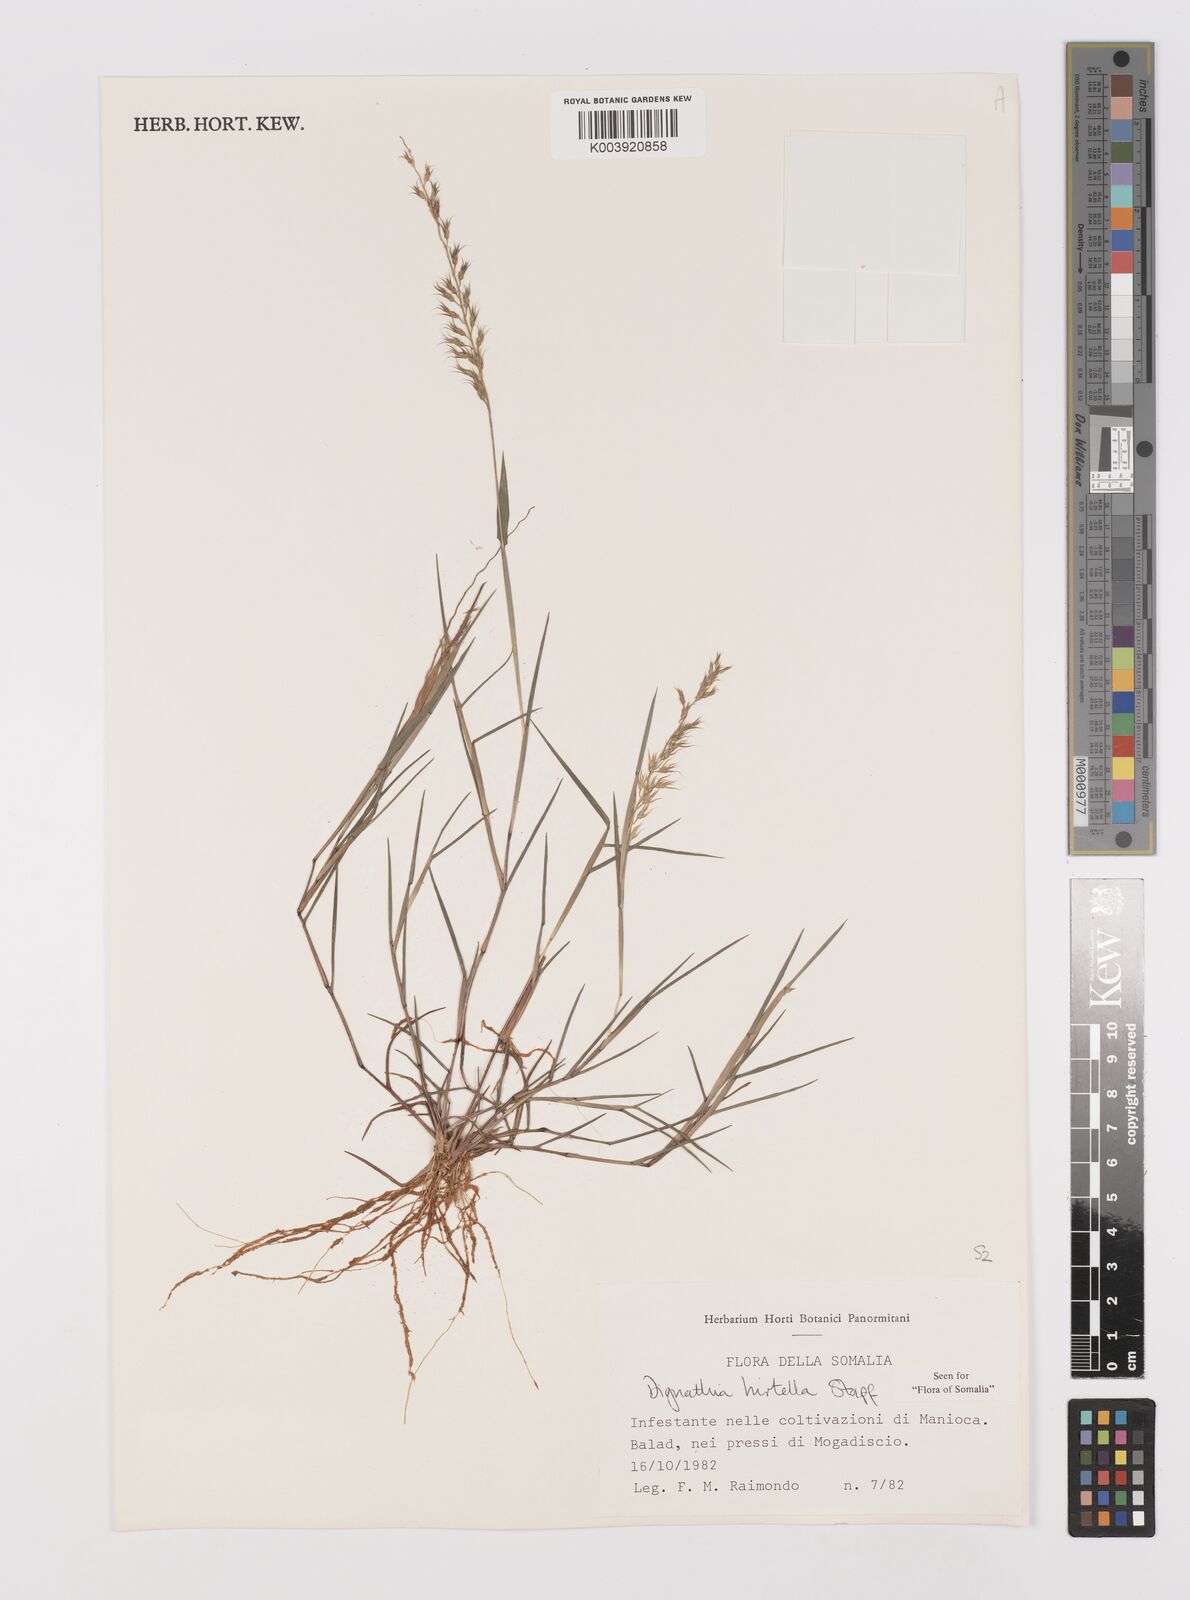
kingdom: Plantae
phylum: Tracheophyta
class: Liliopsida
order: Poales
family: Poaceae
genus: Dignathia
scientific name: Dignathia hirtella
